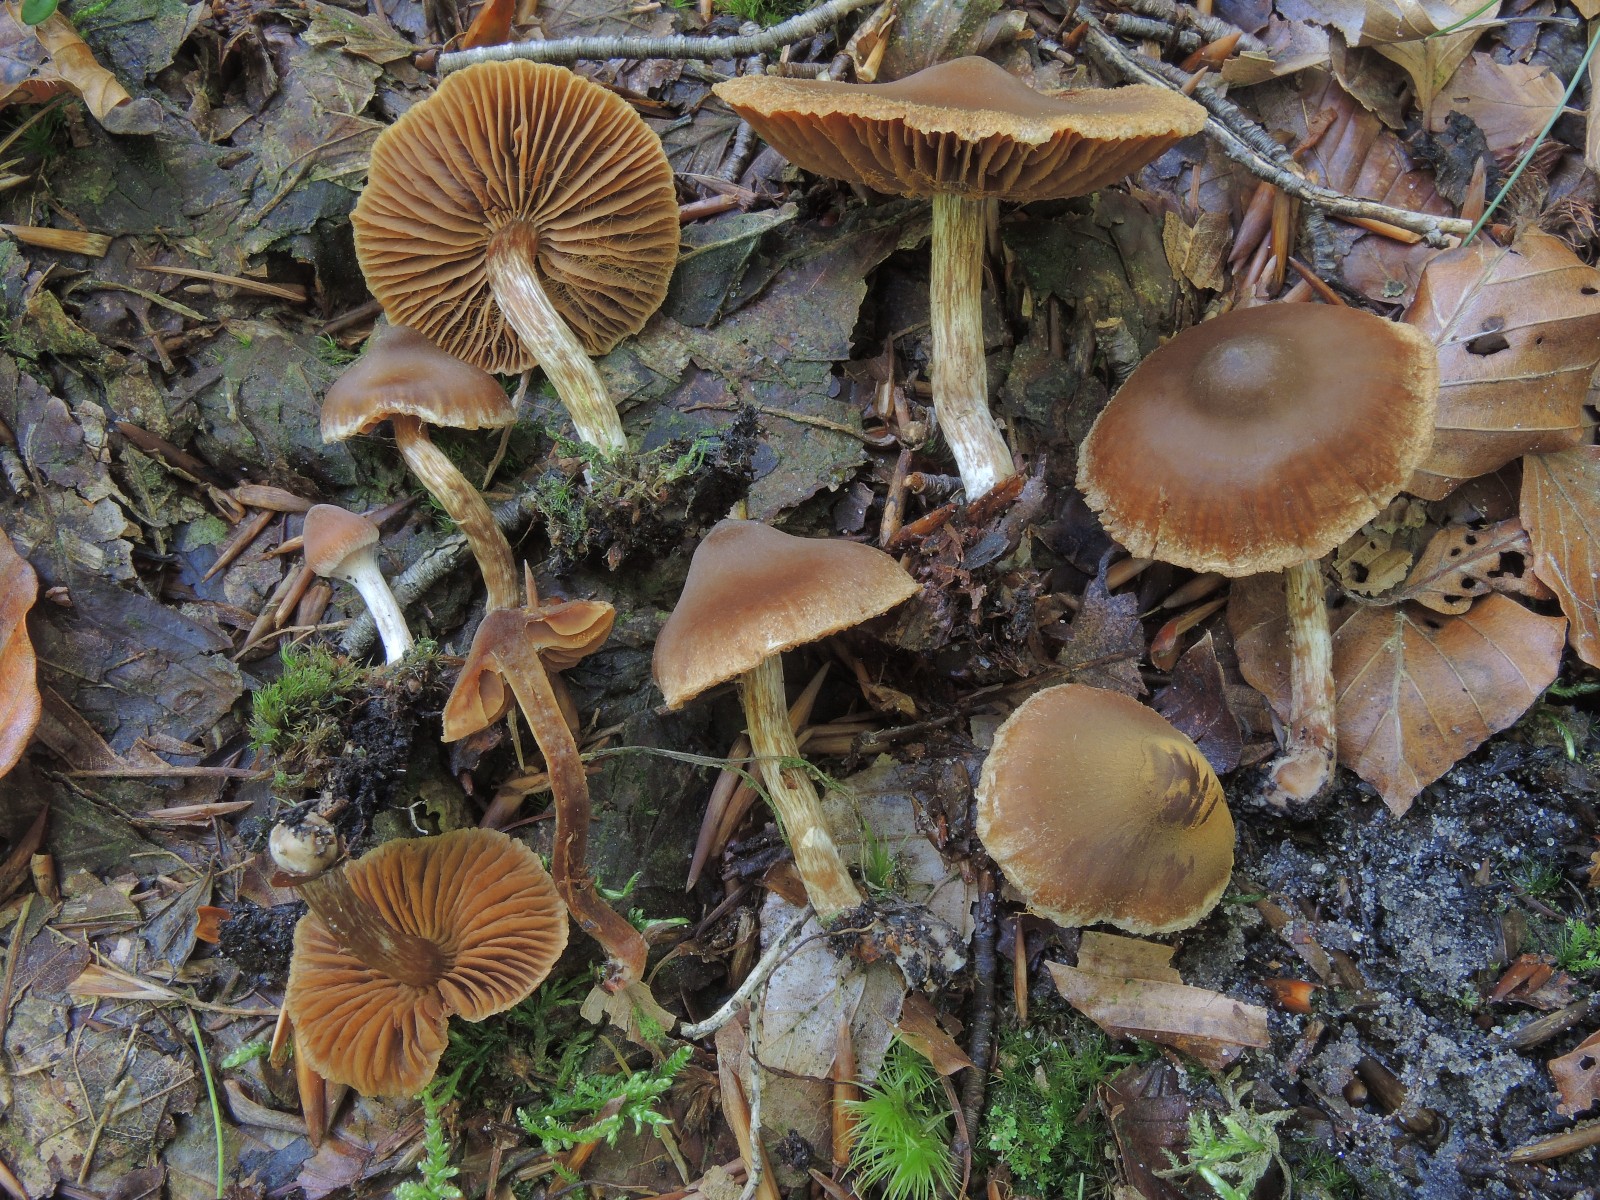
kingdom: Fungi
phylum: Basidiomycota
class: Agaricomycetes
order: Agaricales
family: Cortinariaceae
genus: Cortinarius
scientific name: Cortinarius flabellus
